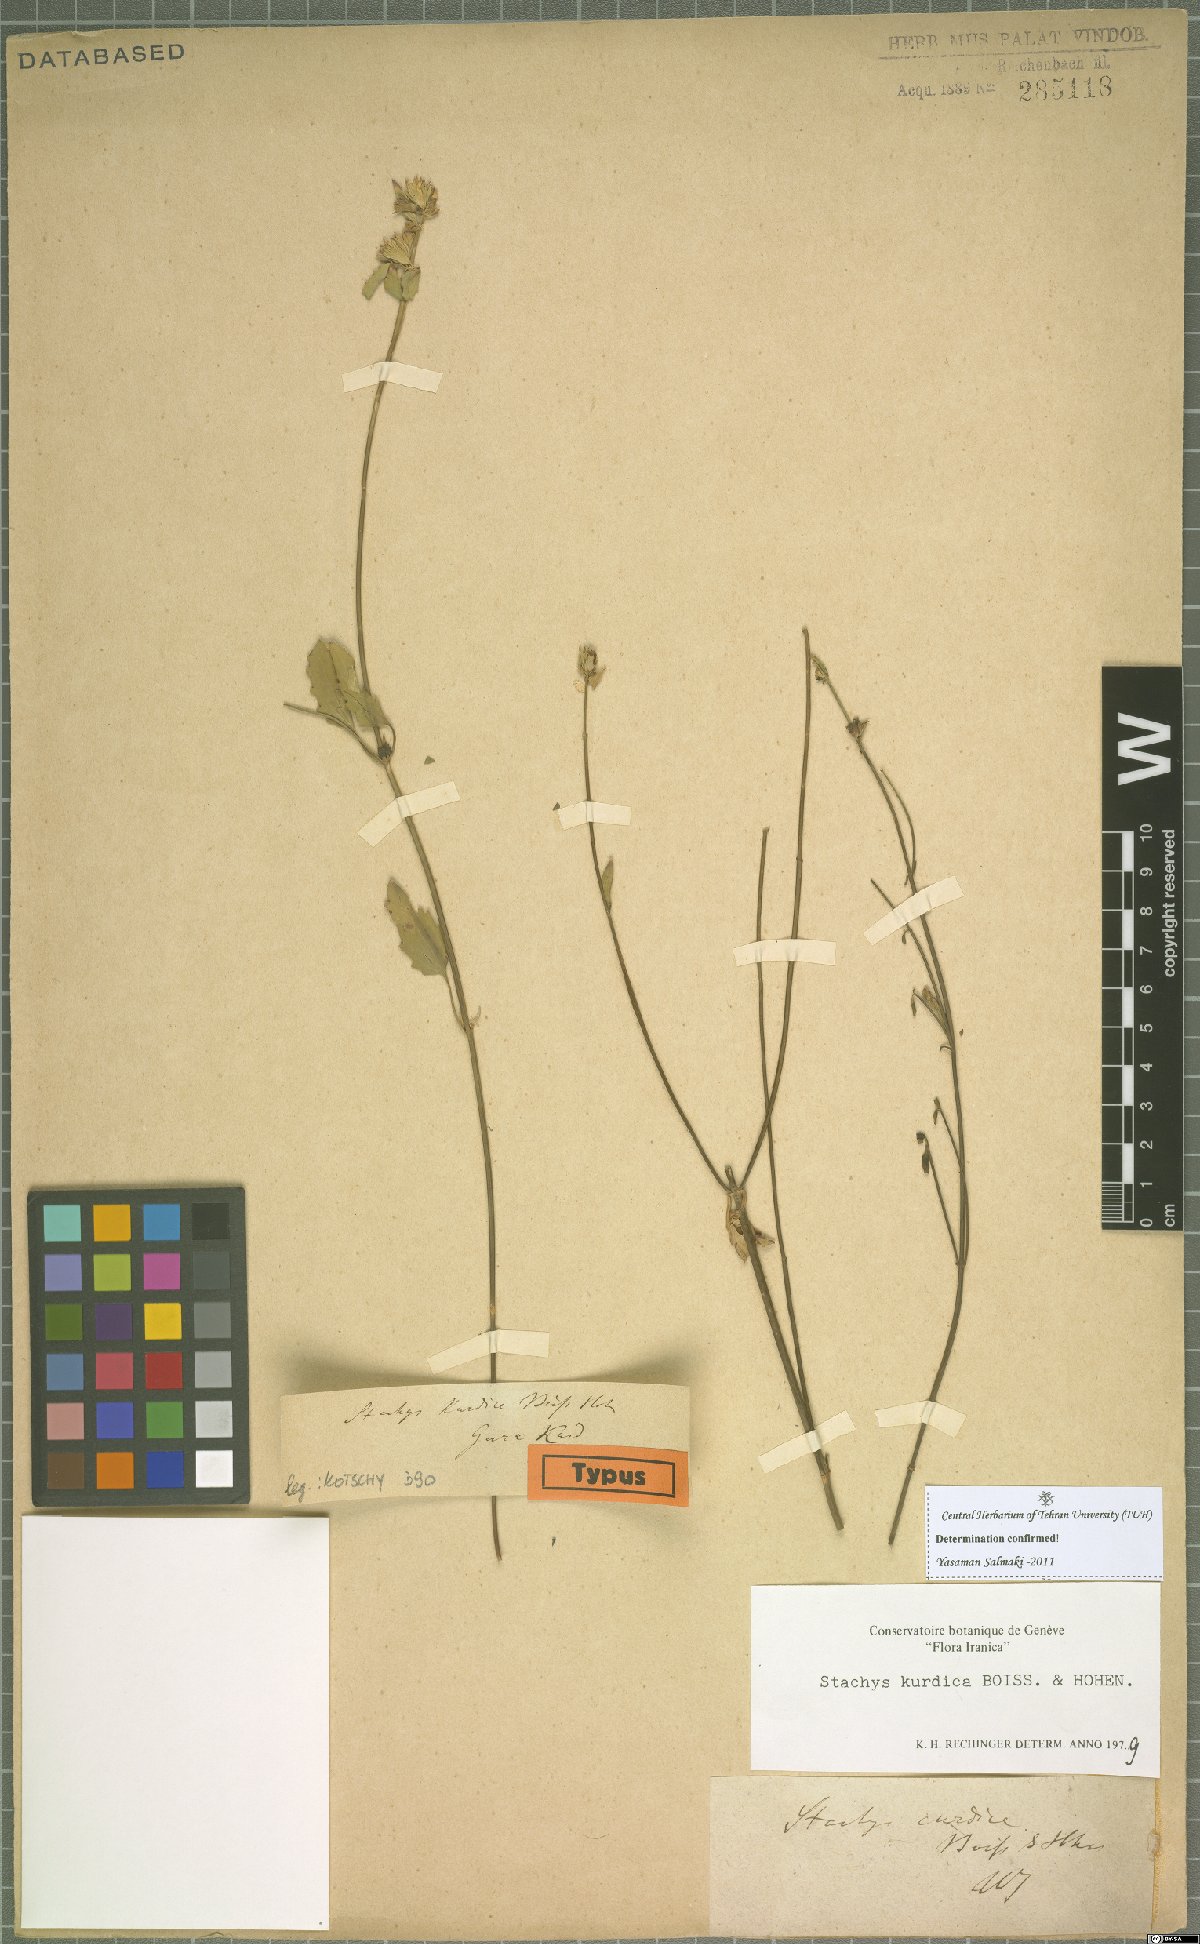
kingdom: Plantae
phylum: Tracheophyta
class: Magnoliopsida
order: Lamiales
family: Lamiaceae
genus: Stachys
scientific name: Stachys kurdica
